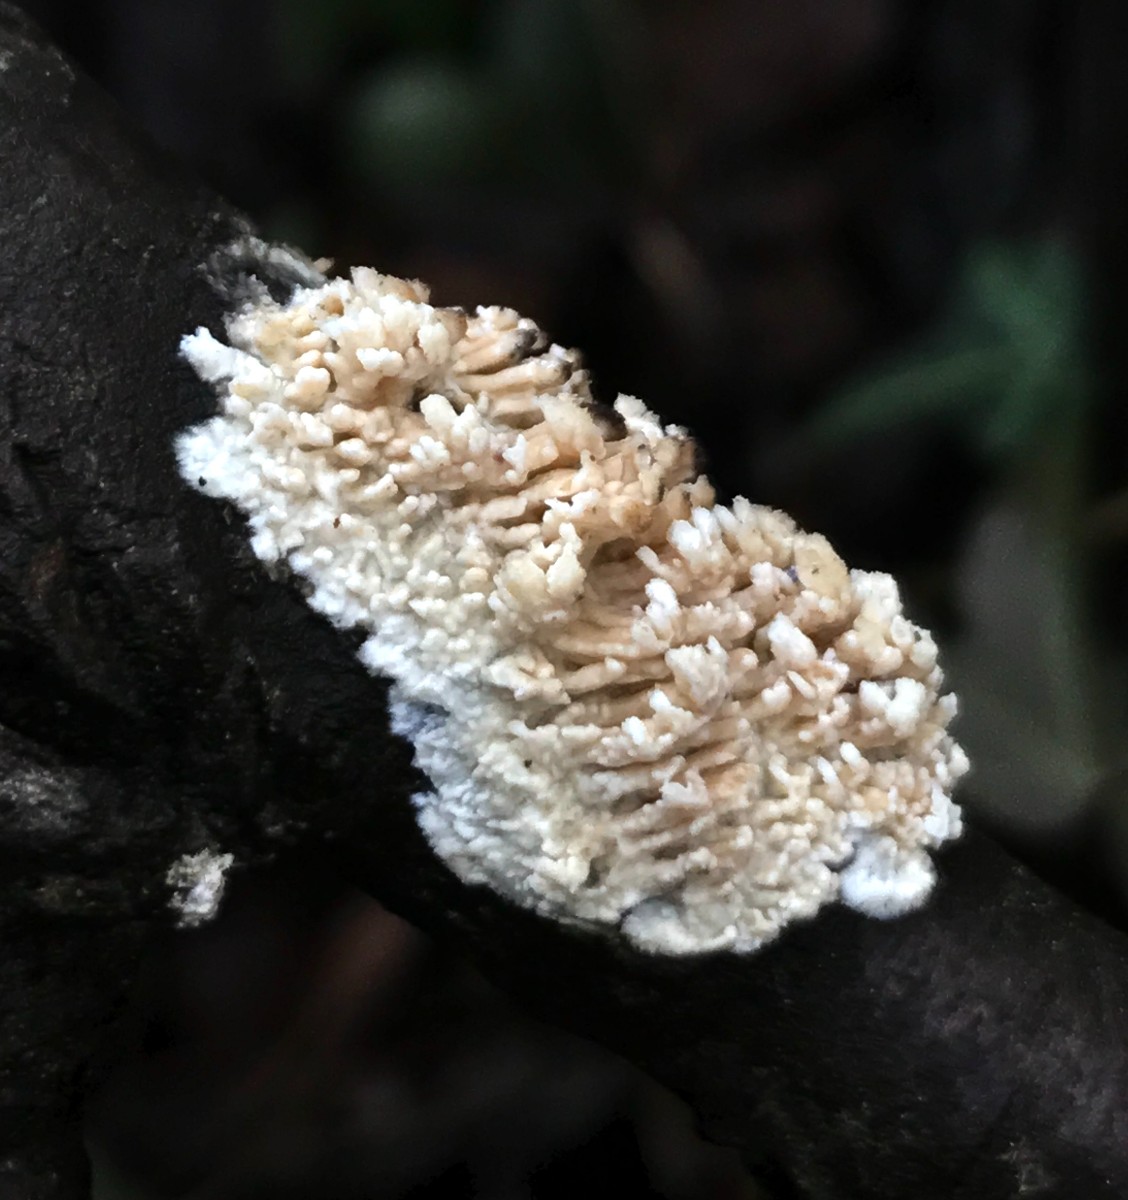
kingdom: Fungi
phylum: Basidiomycota
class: Agaricomycetes
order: Hymenochaetales
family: Schizoporaceae
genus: Xylodon
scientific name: Xylodon radula
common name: grovtandet kalkskind
